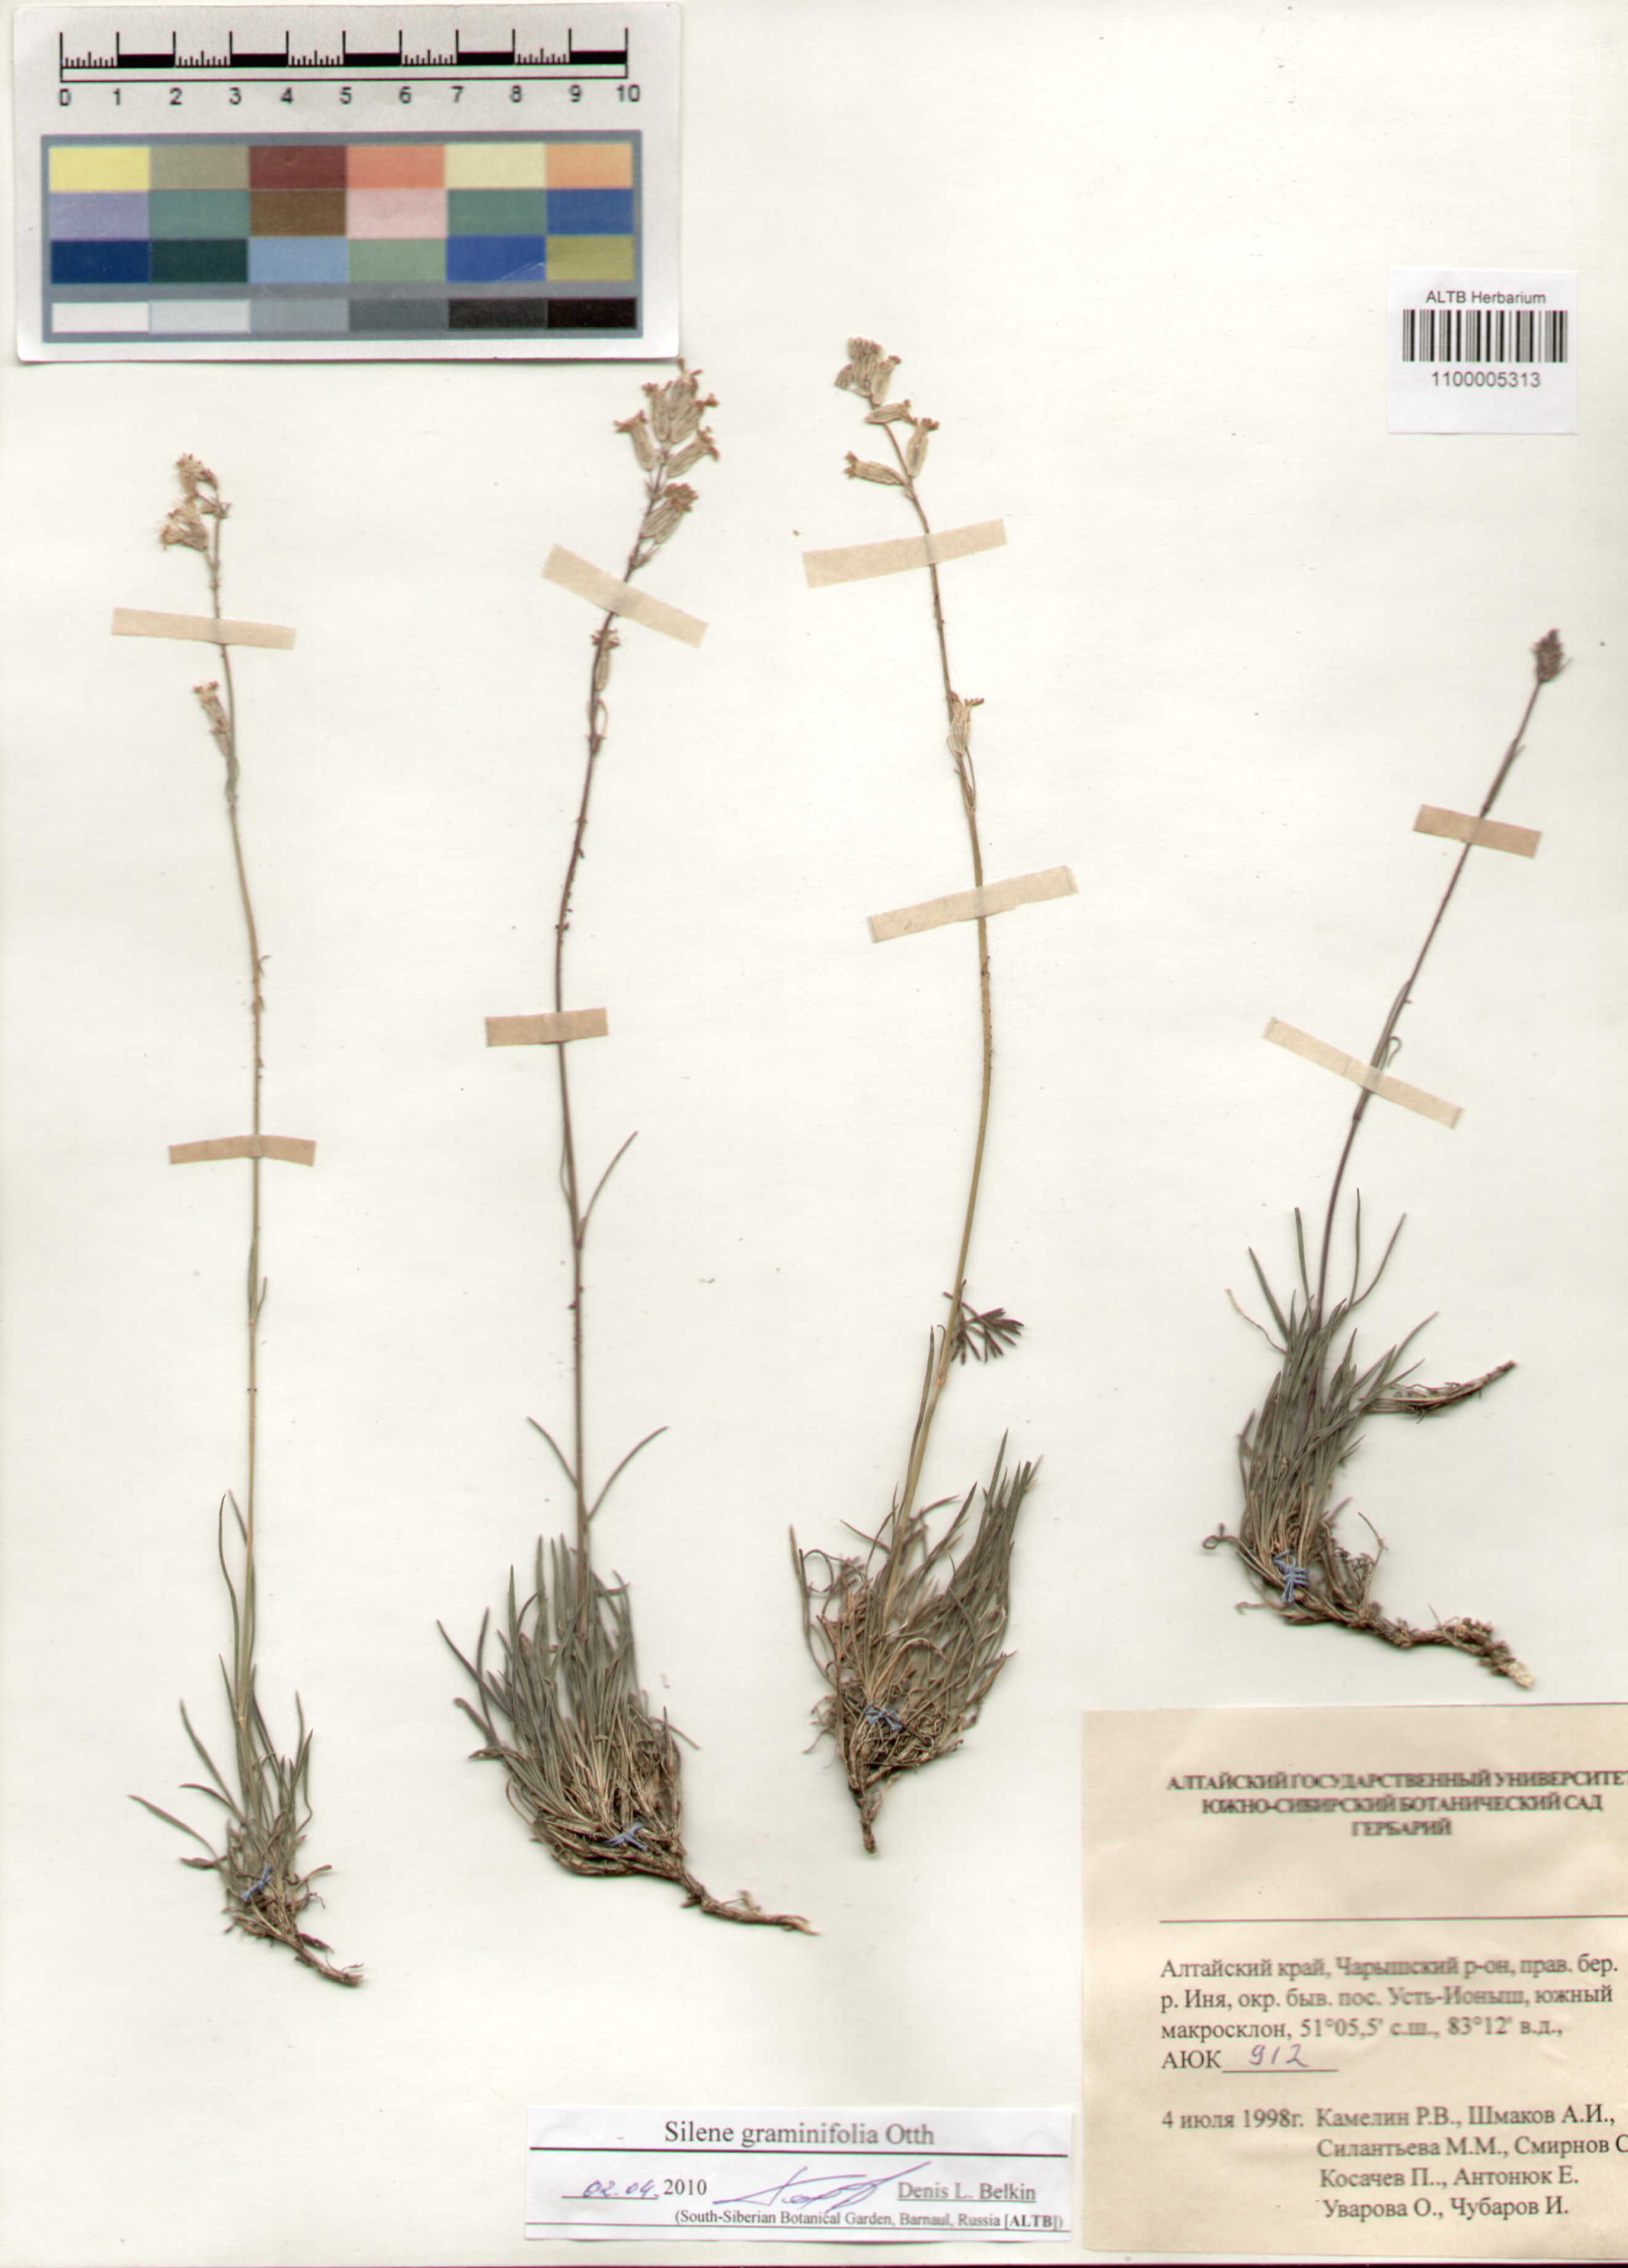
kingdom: Plantae
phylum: Tracheophyta
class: Magnoliopsida
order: Caryophyllales
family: Caryophyllaceae
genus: Silene
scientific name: Silene graminifolia
